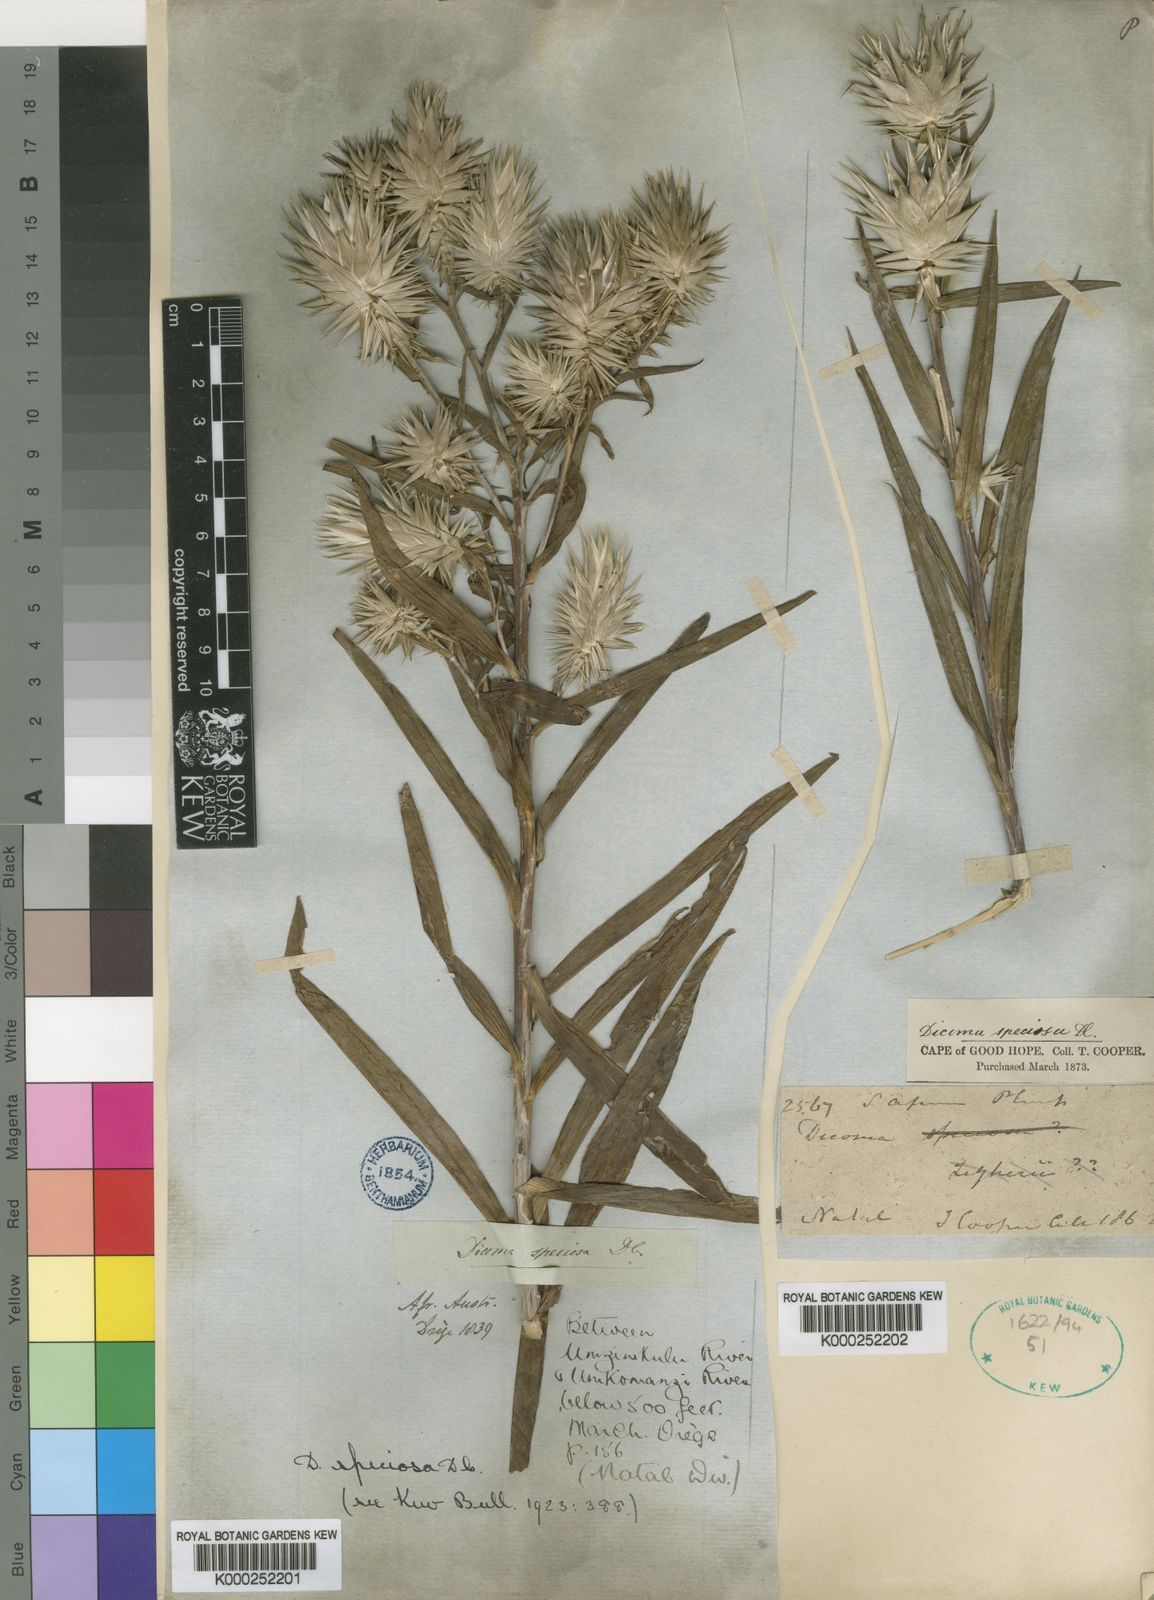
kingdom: Plantae
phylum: Tracheophyta
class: Magnoliopsida
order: Asterales
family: Asteraceae
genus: Macledium
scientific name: Macledium speciosum
